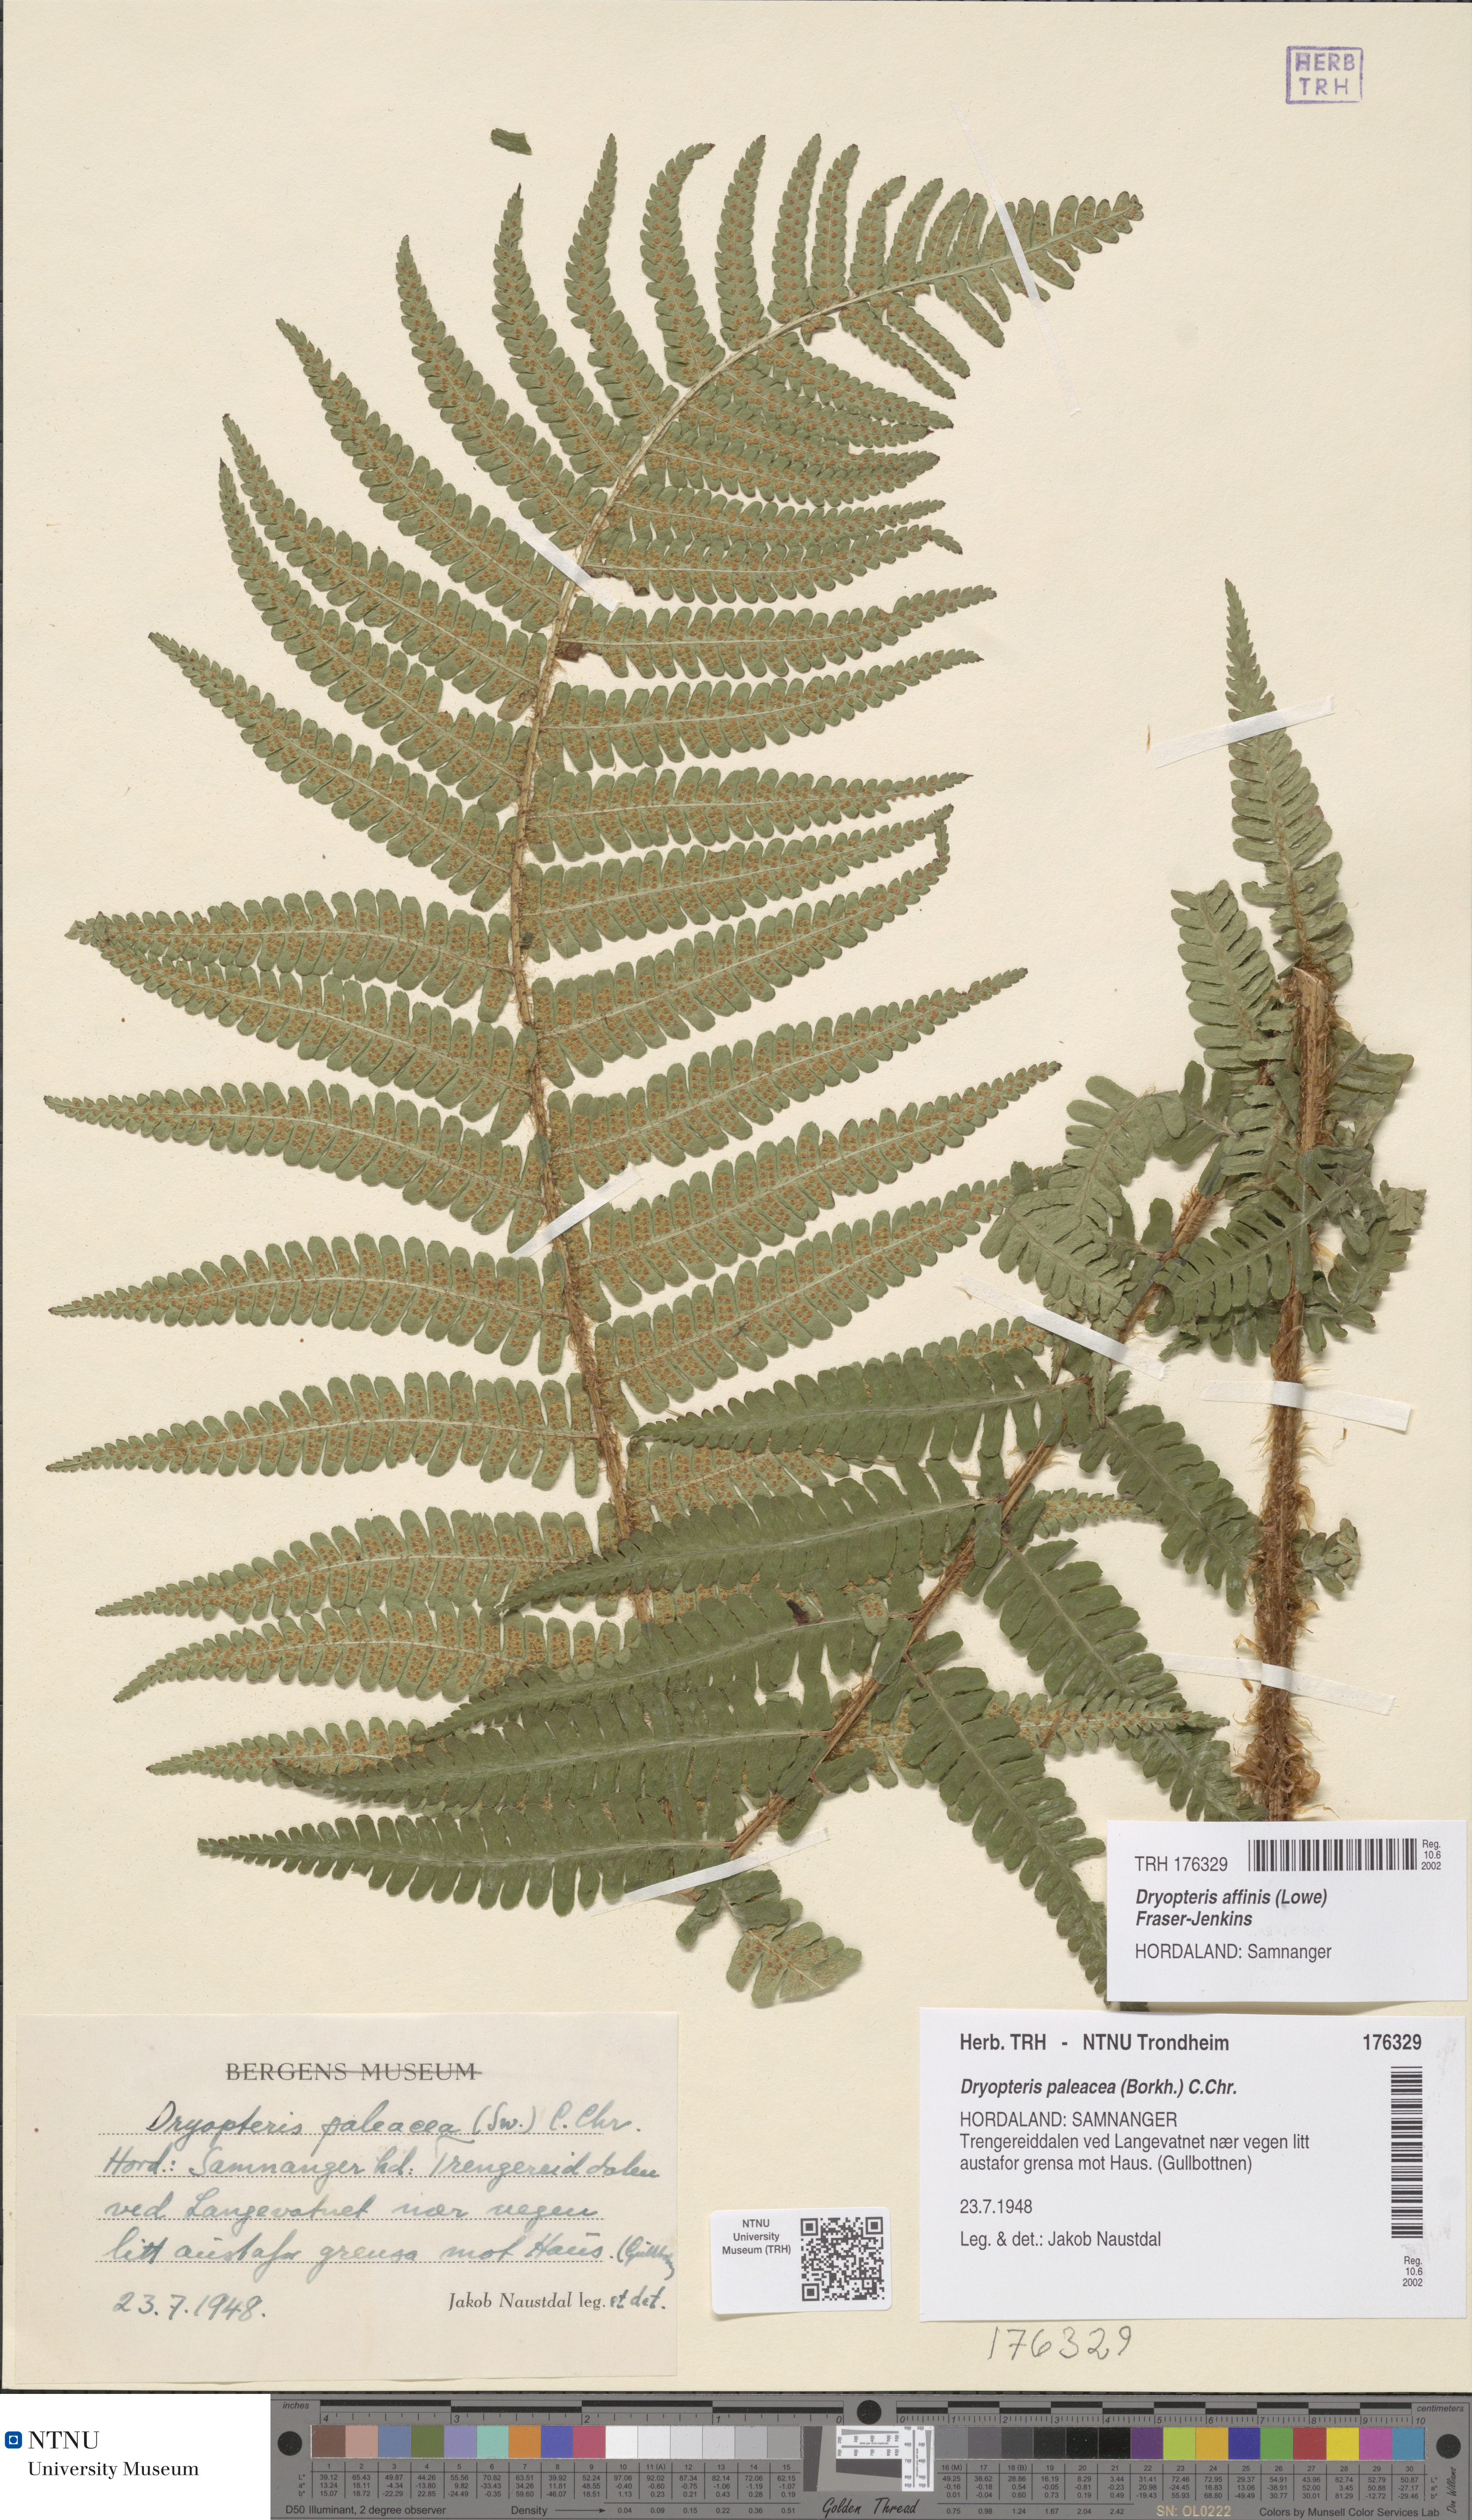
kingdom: Plantae
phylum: Tracheophyta
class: Polypodiopsida
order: Polypodiales
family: Dryopteridaceae
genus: Dryopteris
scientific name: Dryopteris affinis
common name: Scaly male fern
